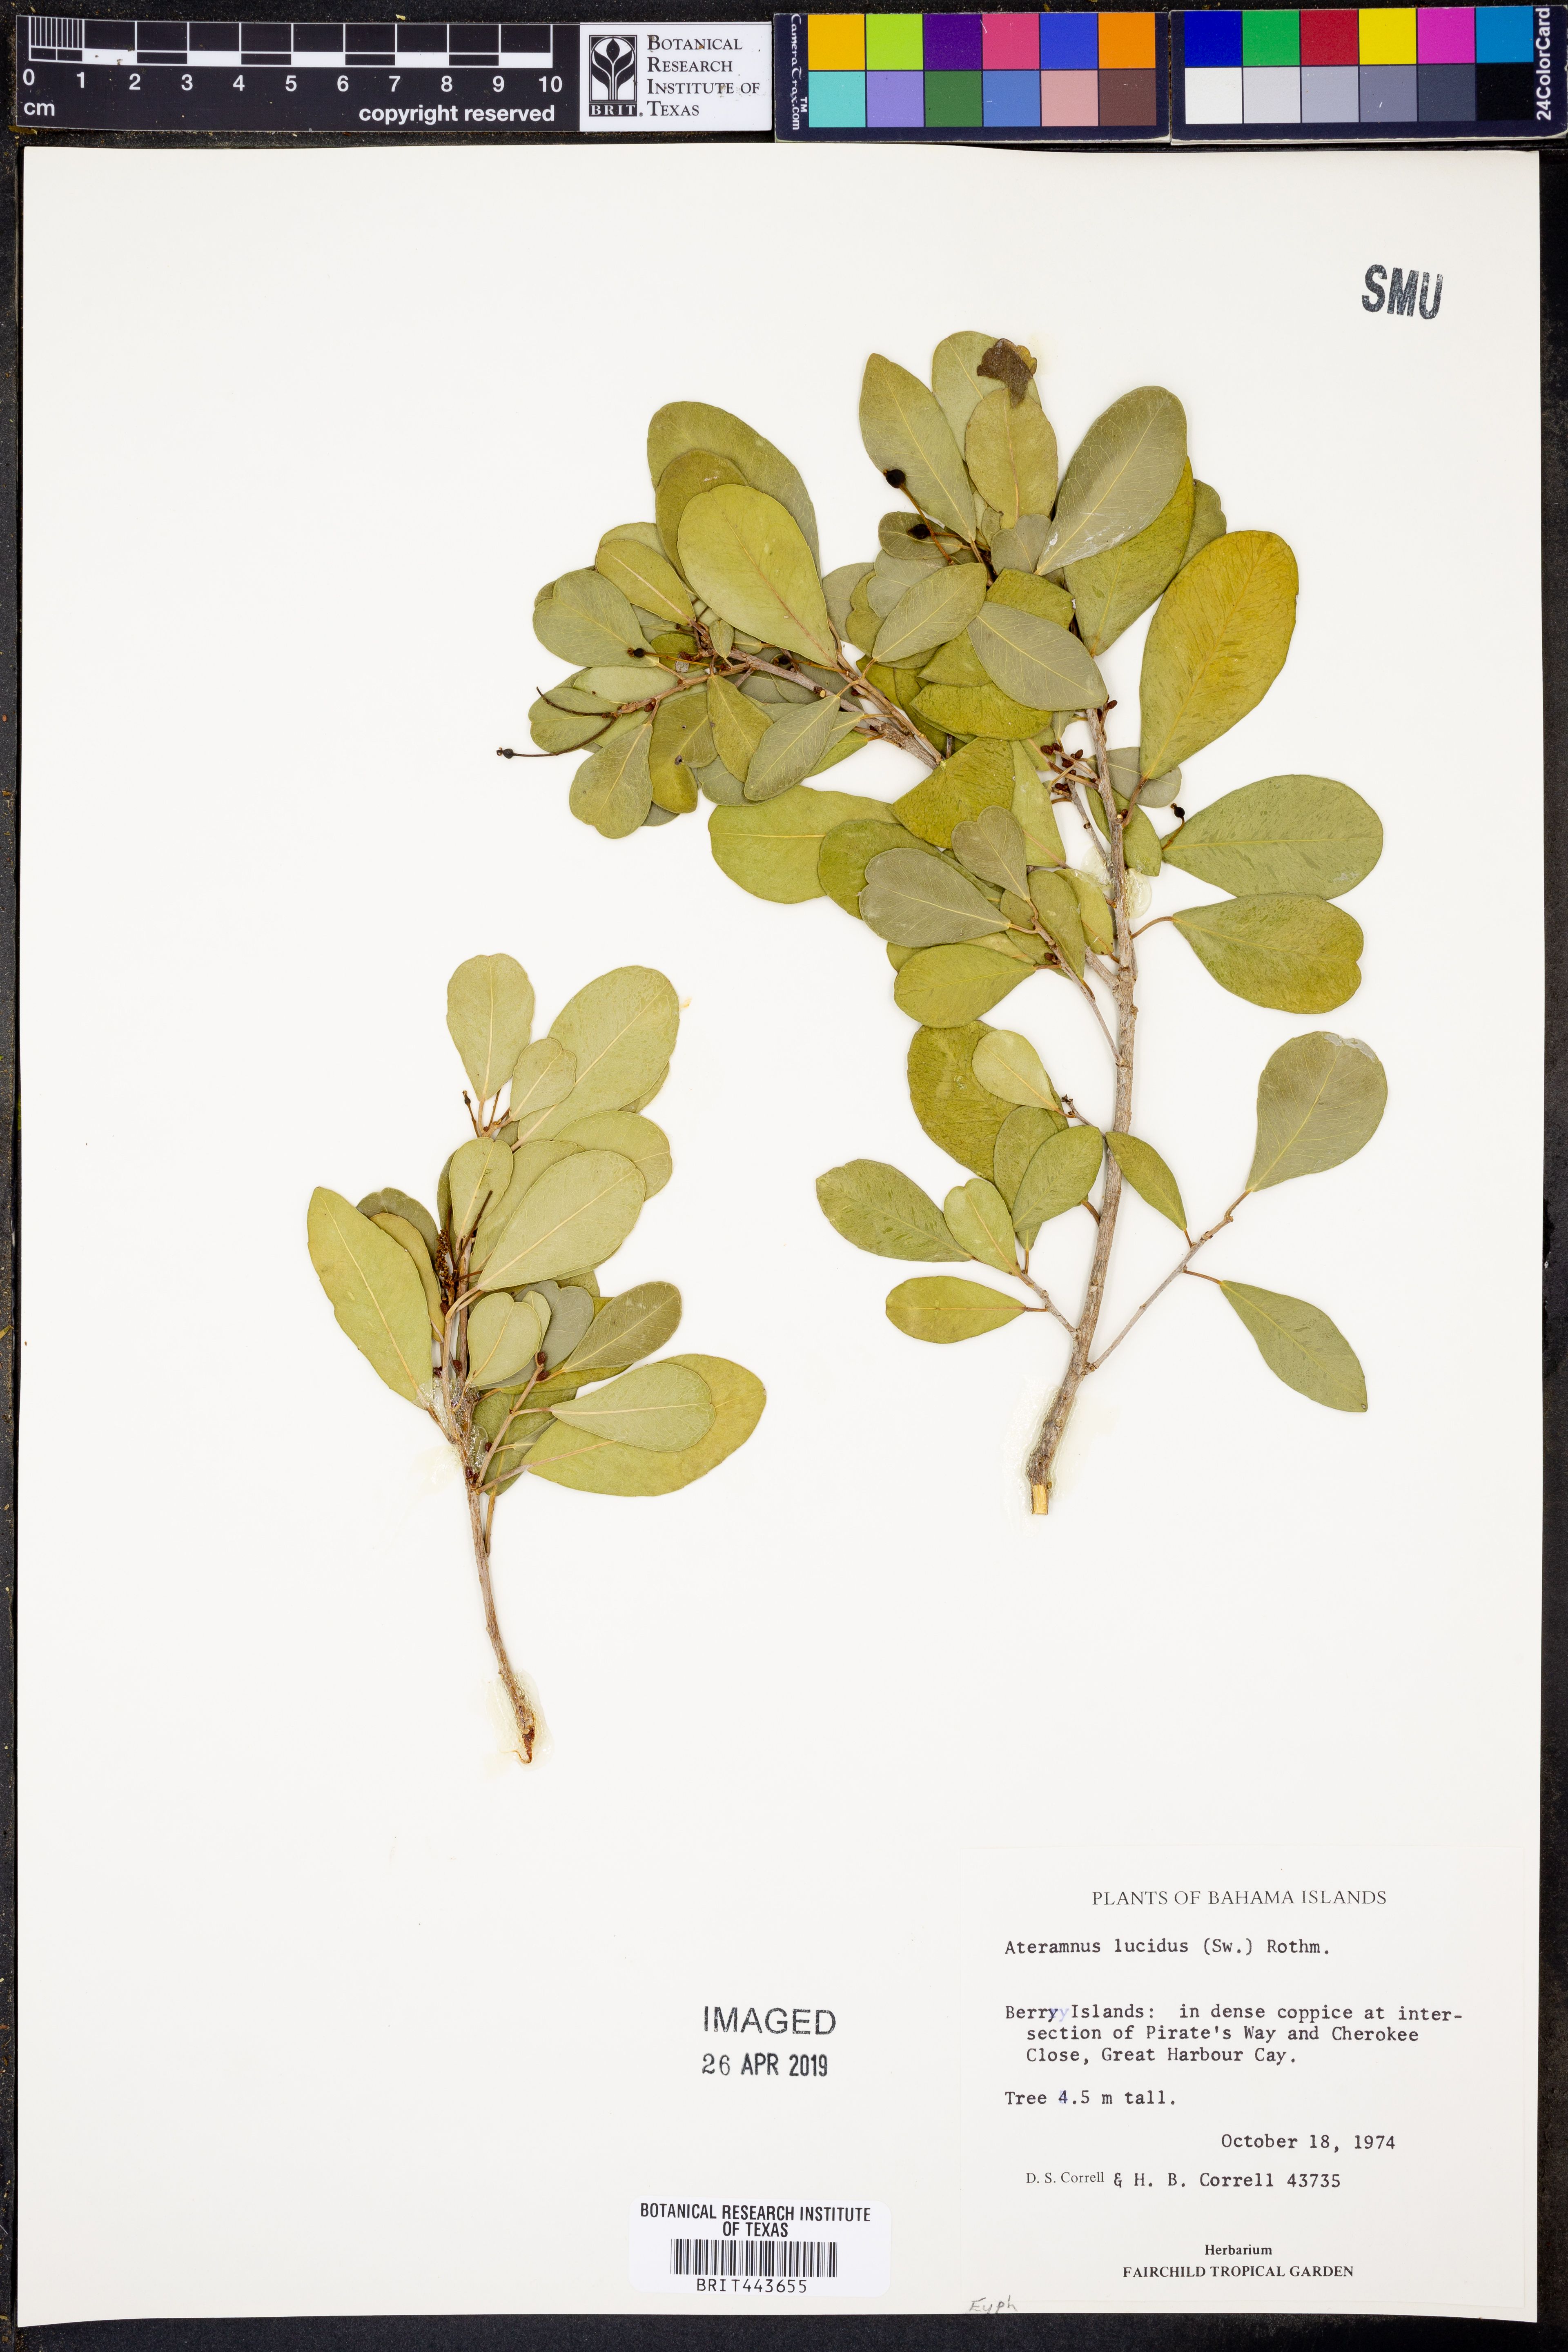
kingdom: Plantae
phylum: Tracheophyta
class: Magnoliopsida
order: Malpighiales
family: Euphorbiaceae
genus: Gymnanthes
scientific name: Gymnanthes lucida
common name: Oysterwood
